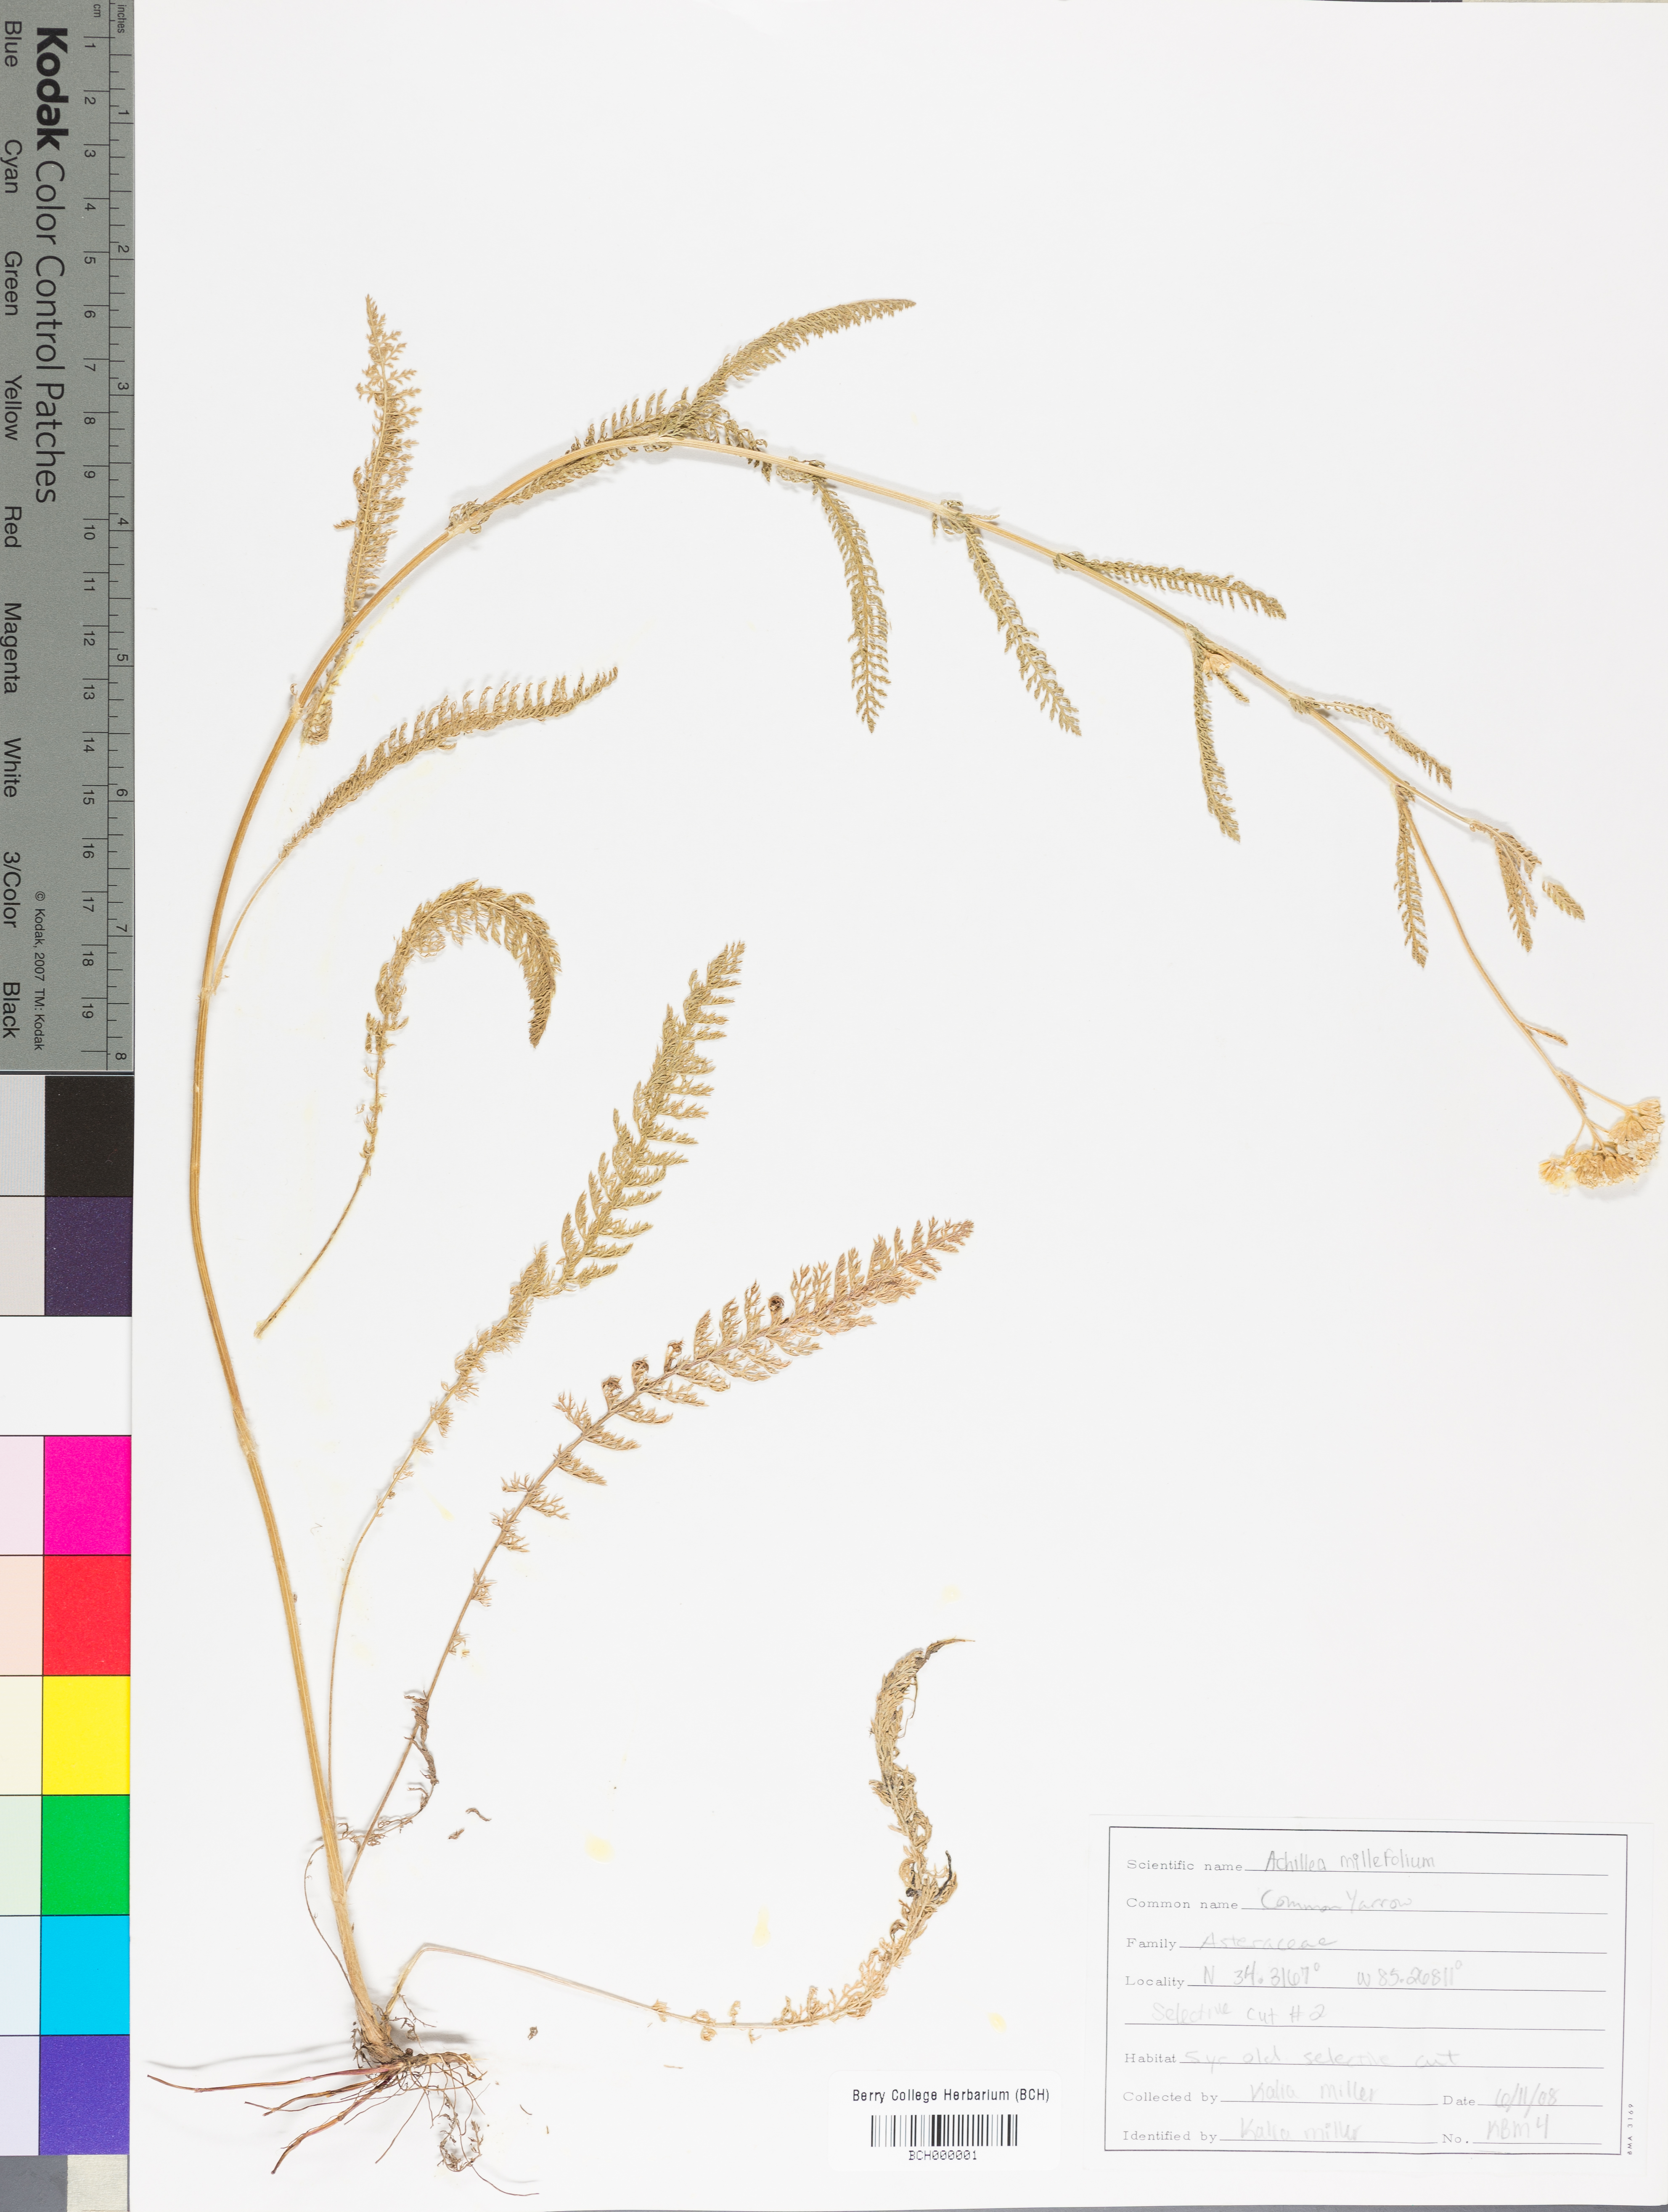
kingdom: Plantae
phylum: Tracheophyta
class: Magnoliopsida
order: Asterales
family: Asteraceae
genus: Achillea
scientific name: Achillea millefolium
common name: Yarrow
